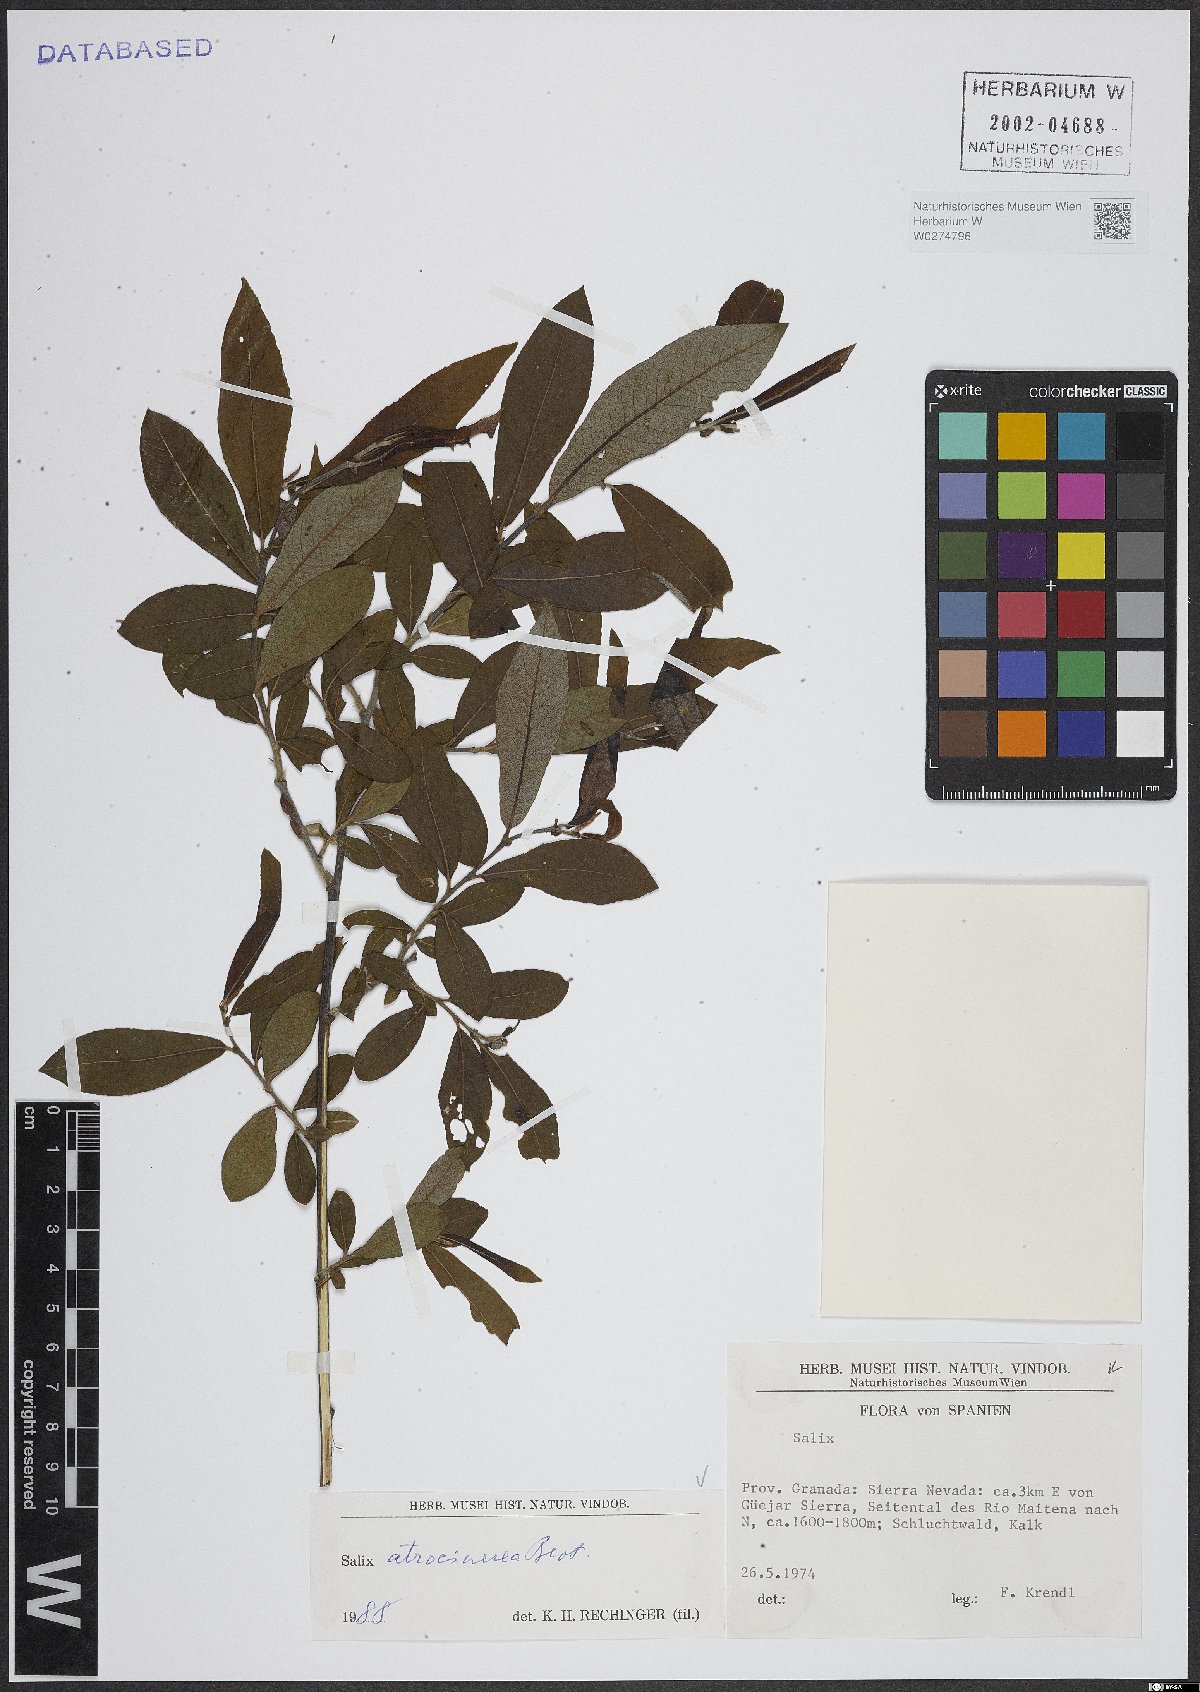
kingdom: Plantae
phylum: Tracheophyta
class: Magnoliopsida
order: Malpighiales
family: Salicaceae
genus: Salix
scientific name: Salix atrocinerea
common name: Rusty willow
